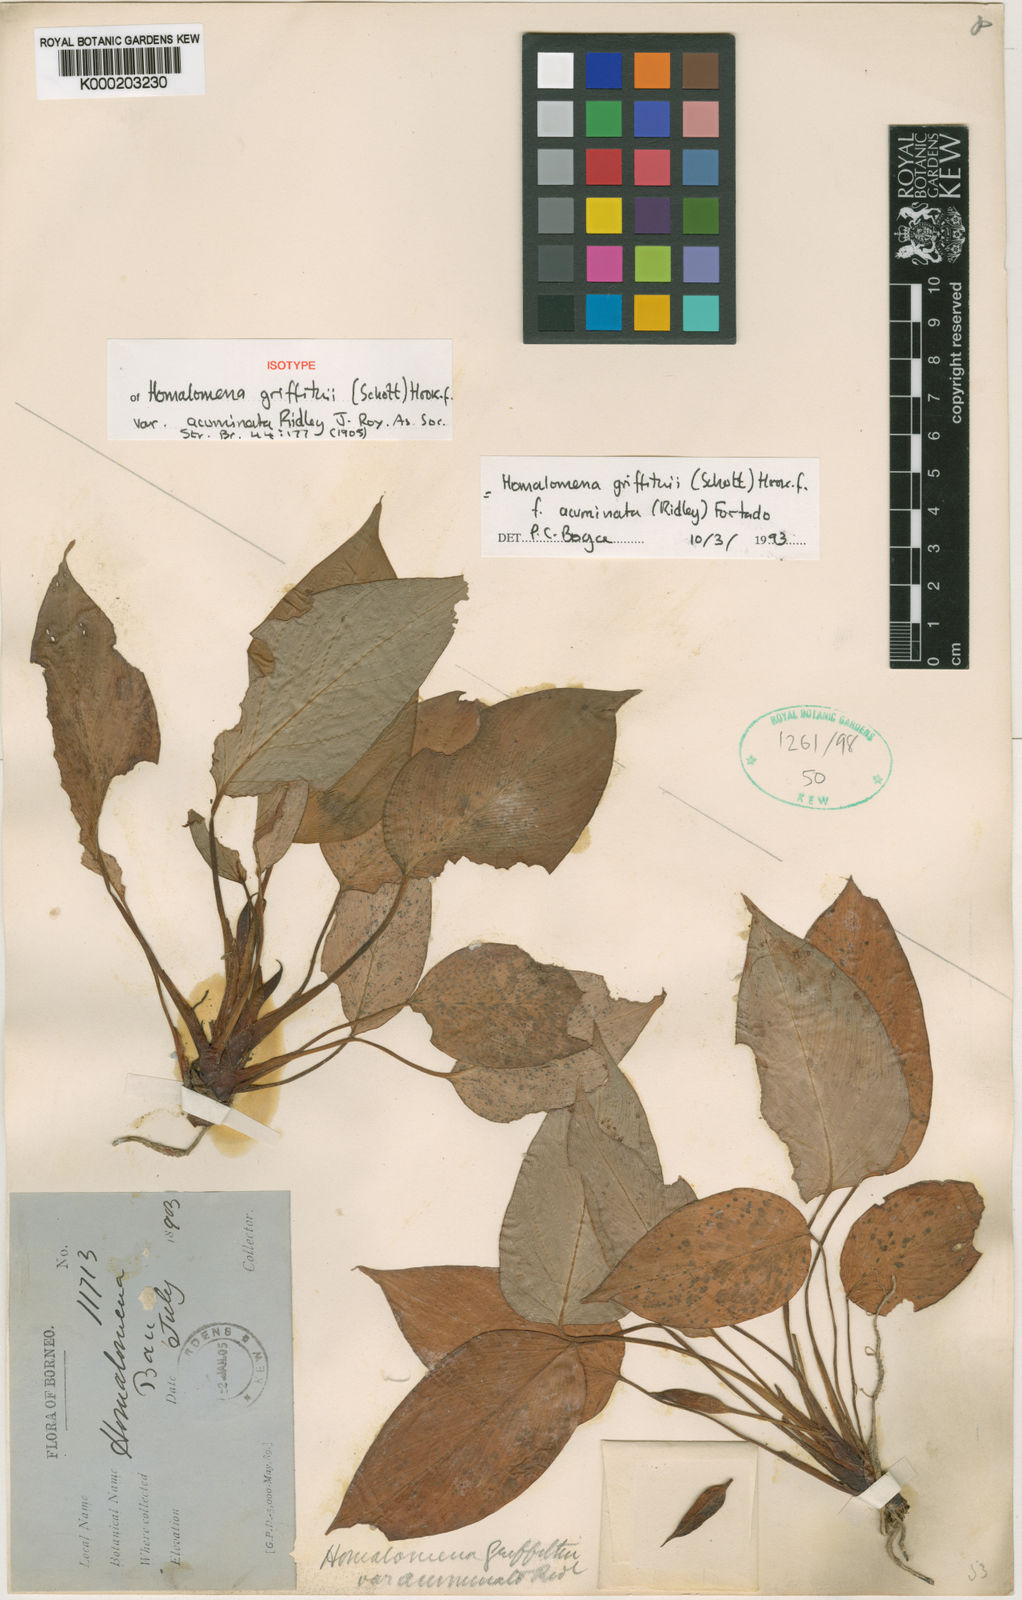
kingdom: Plantae
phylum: Tracheophyta
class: Liliopsida
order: Alismatales
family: Araceae
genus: Homalomena
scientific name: Homalomena griffithii
